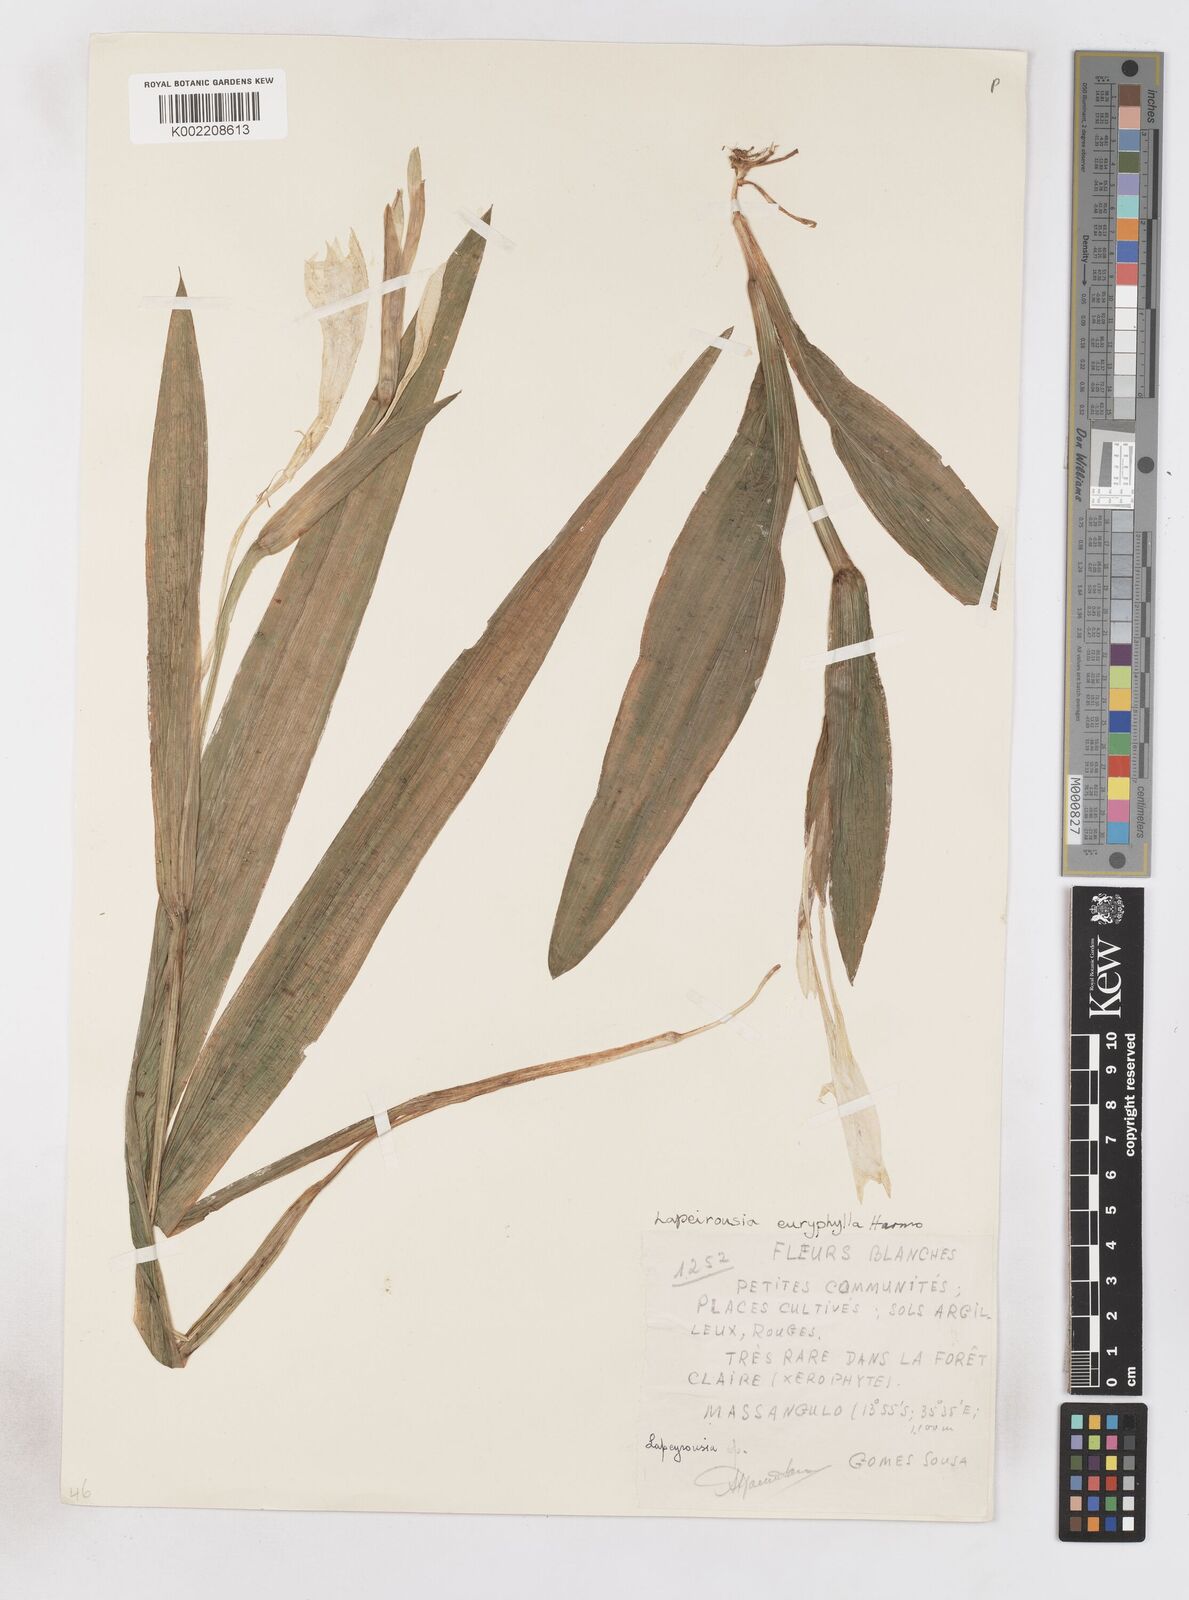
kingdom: Plantae
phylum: Tracheophyta
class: Liliopsida
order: Asparagales
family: Iridaceae
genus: Savannosiphon
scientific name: Savannosiphon euryphylla
